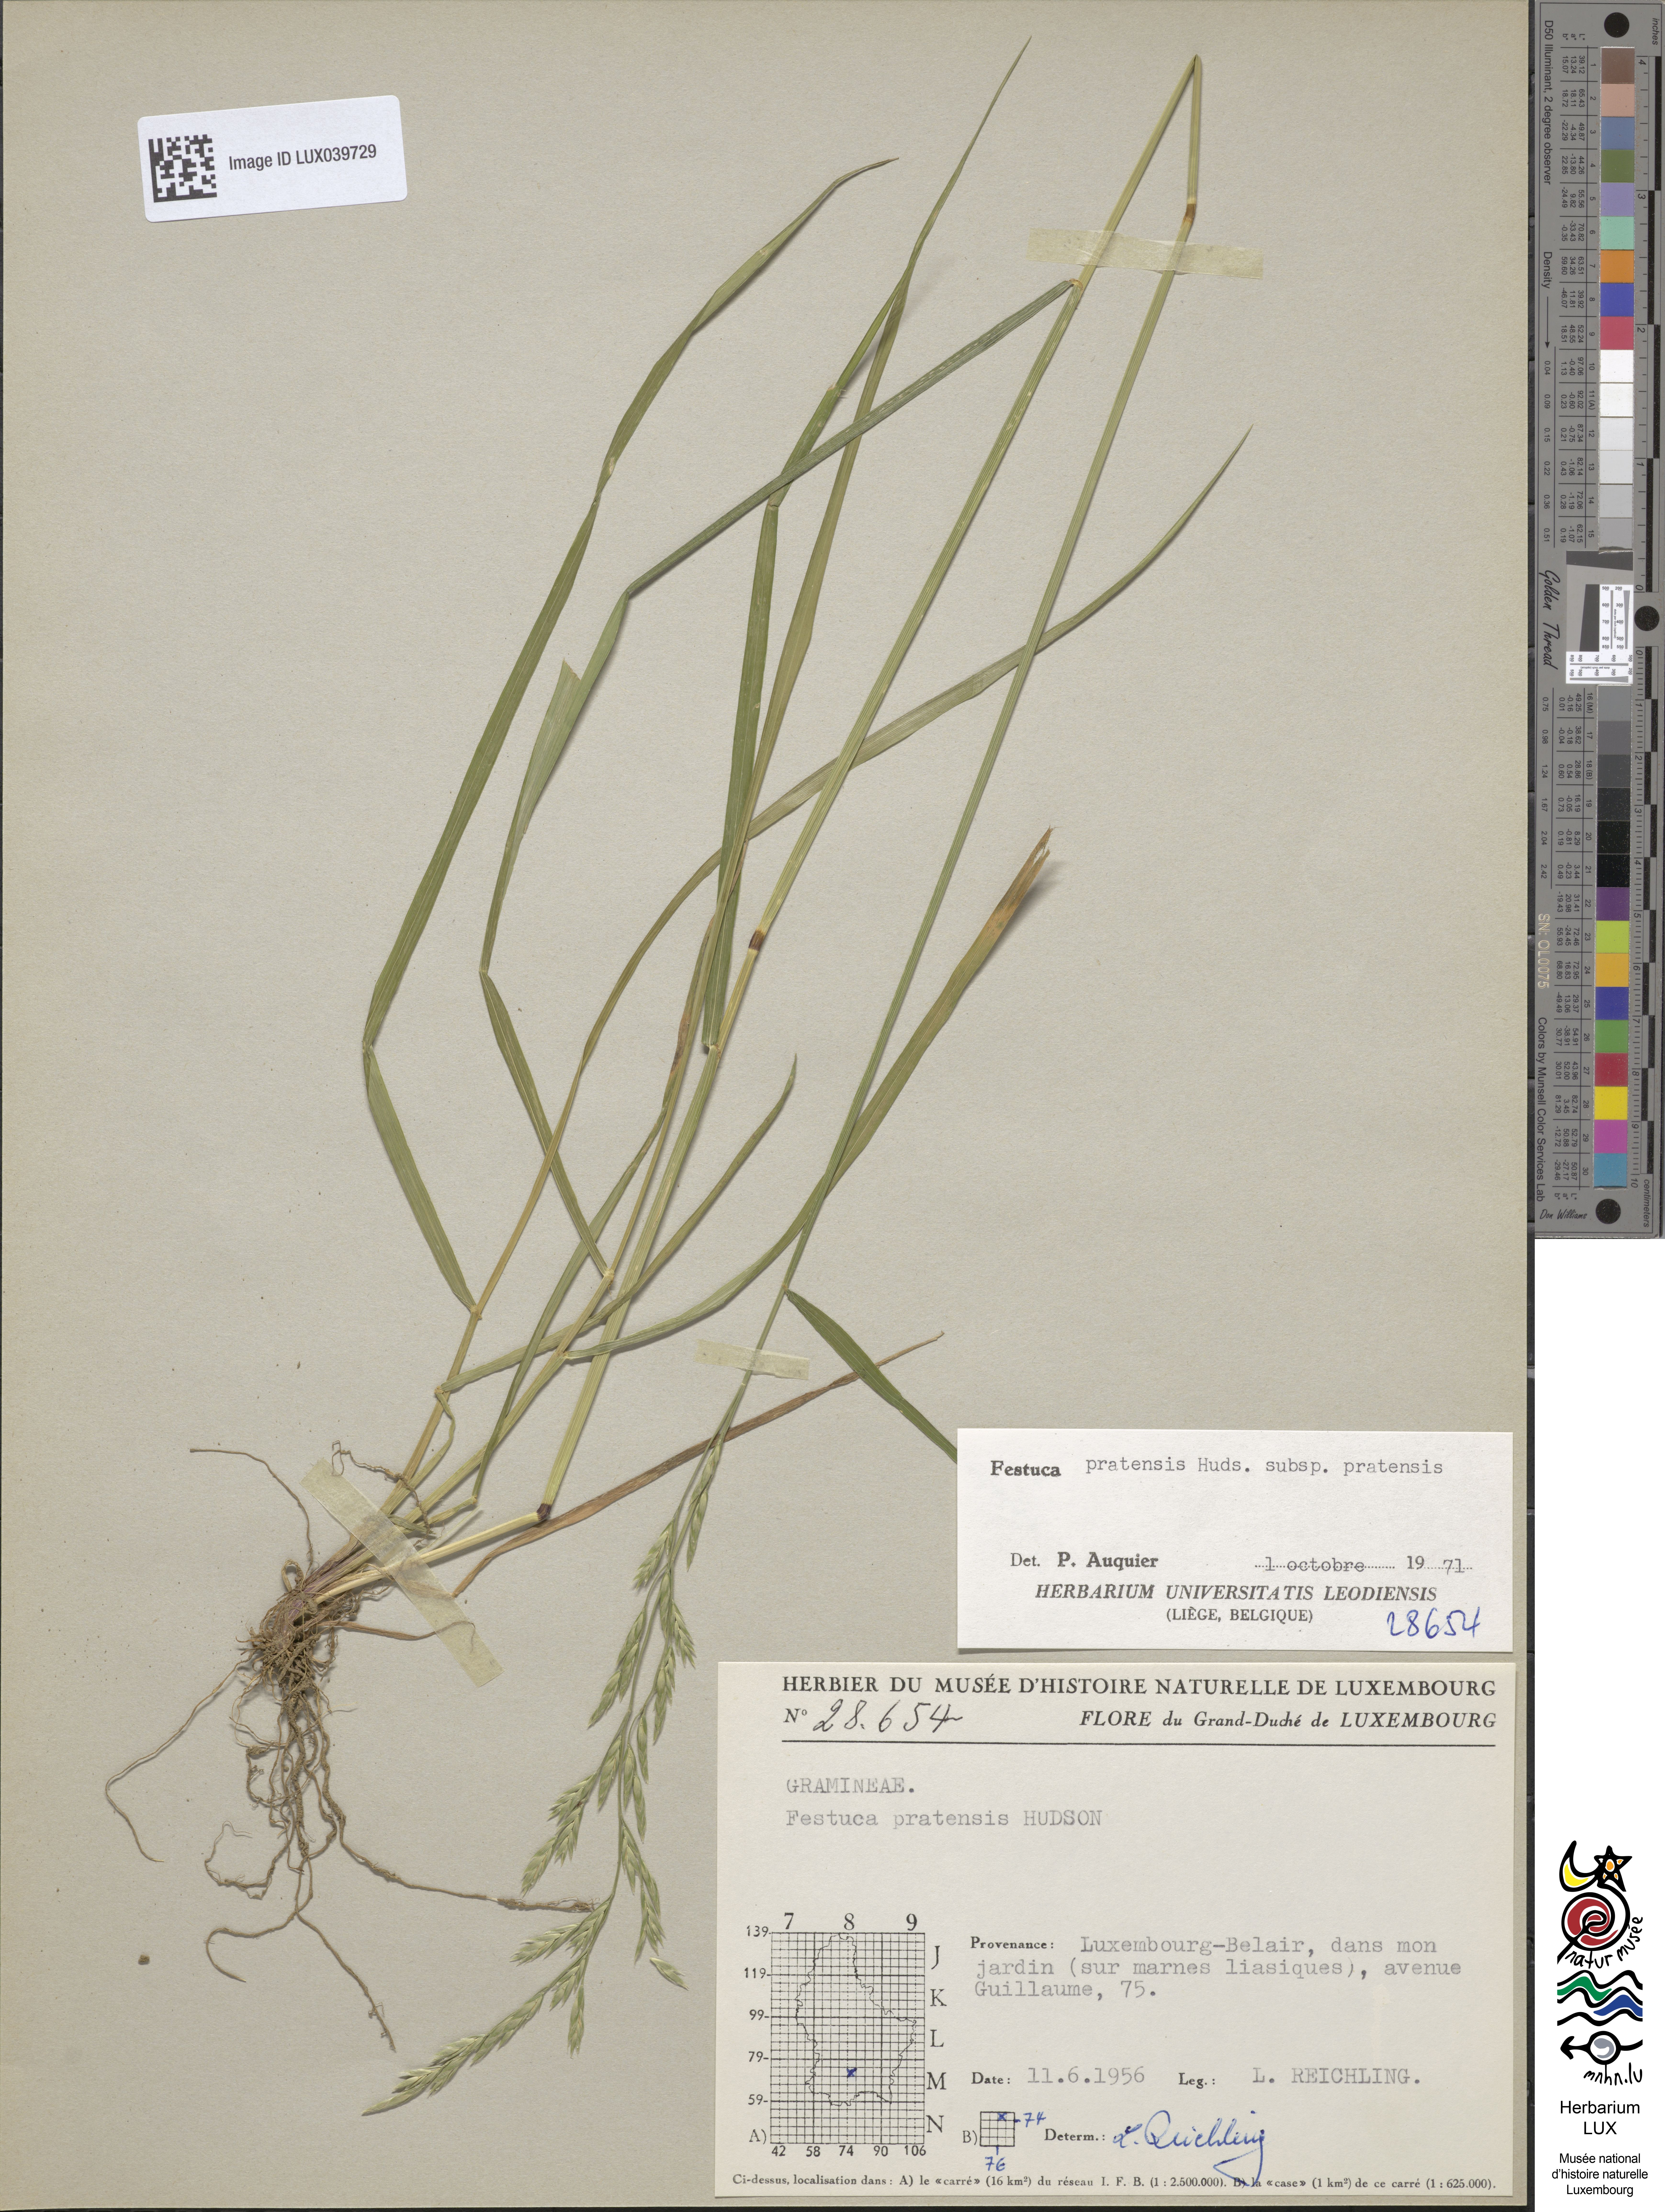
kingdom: Plantae
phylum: Tracheophyta
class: Liliopsida
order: Poales
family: Poaceae
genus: Lolium
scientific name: Lolium pratense
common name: Dover grass
